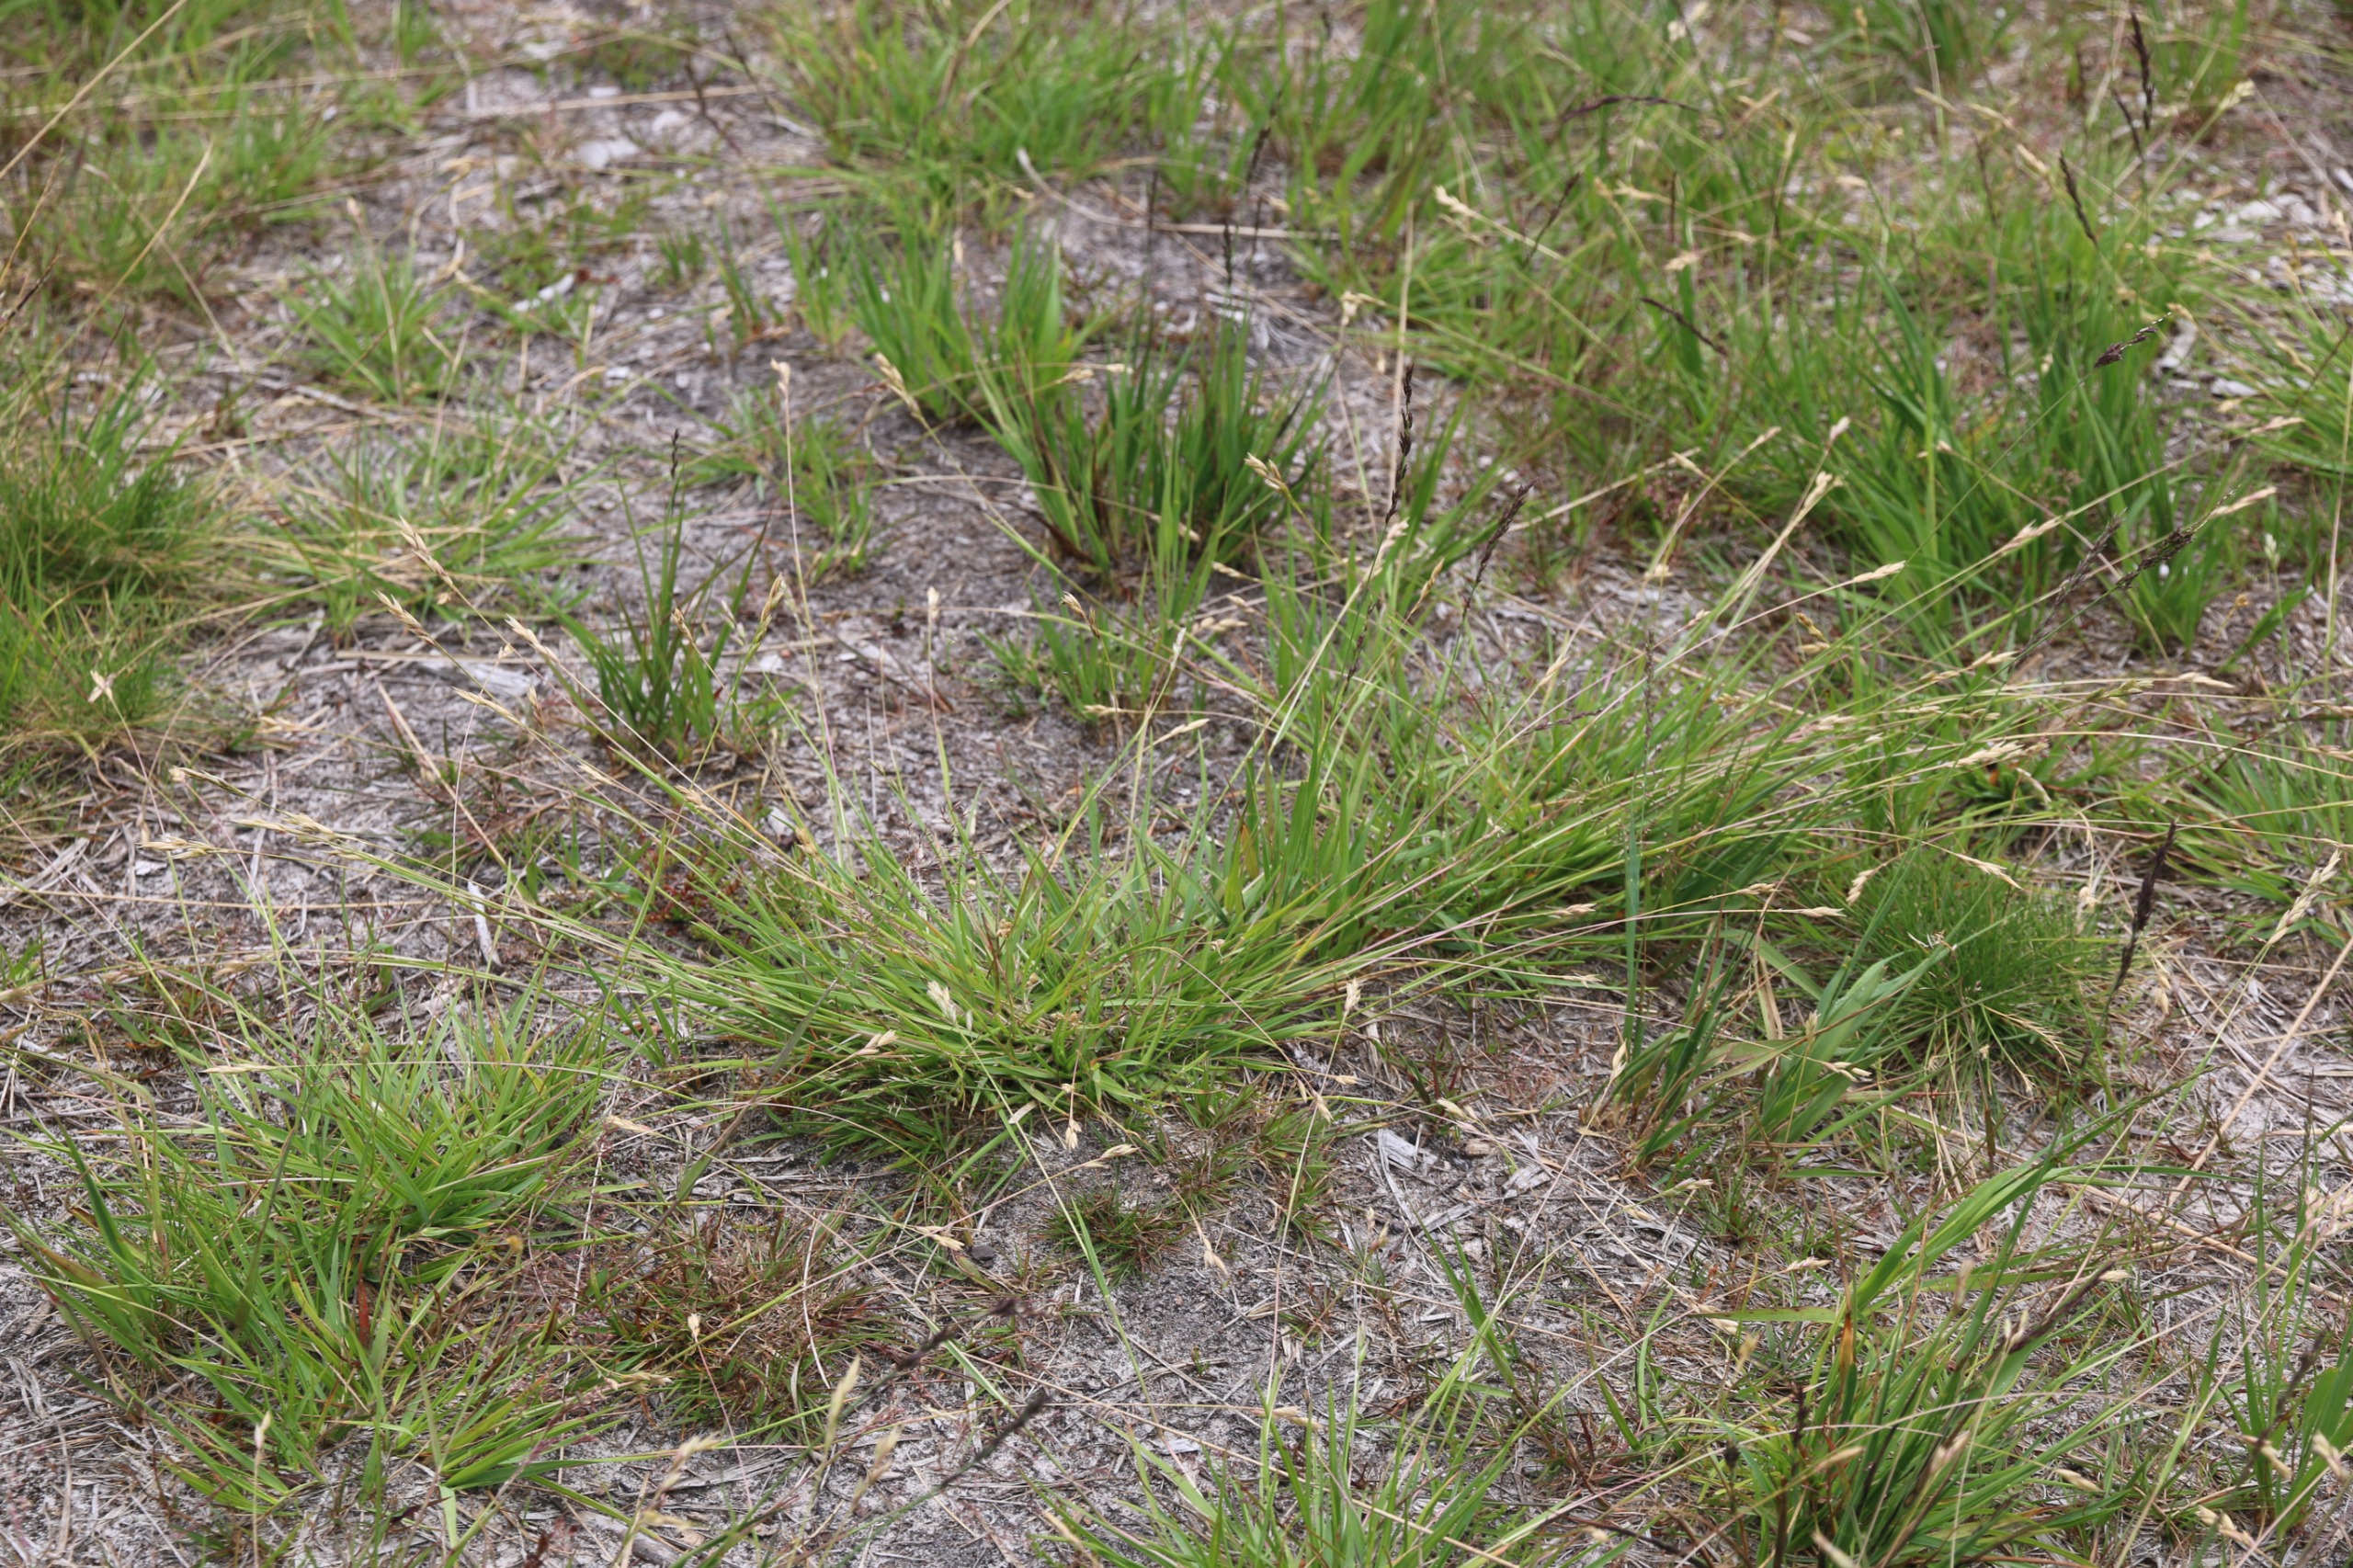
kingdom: Plantae
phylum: Tracheophyta
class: Liliopsida
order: Poales
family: Poaceae
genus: Danthonia
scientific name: Danthonia decumbens
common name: Tandbælg
